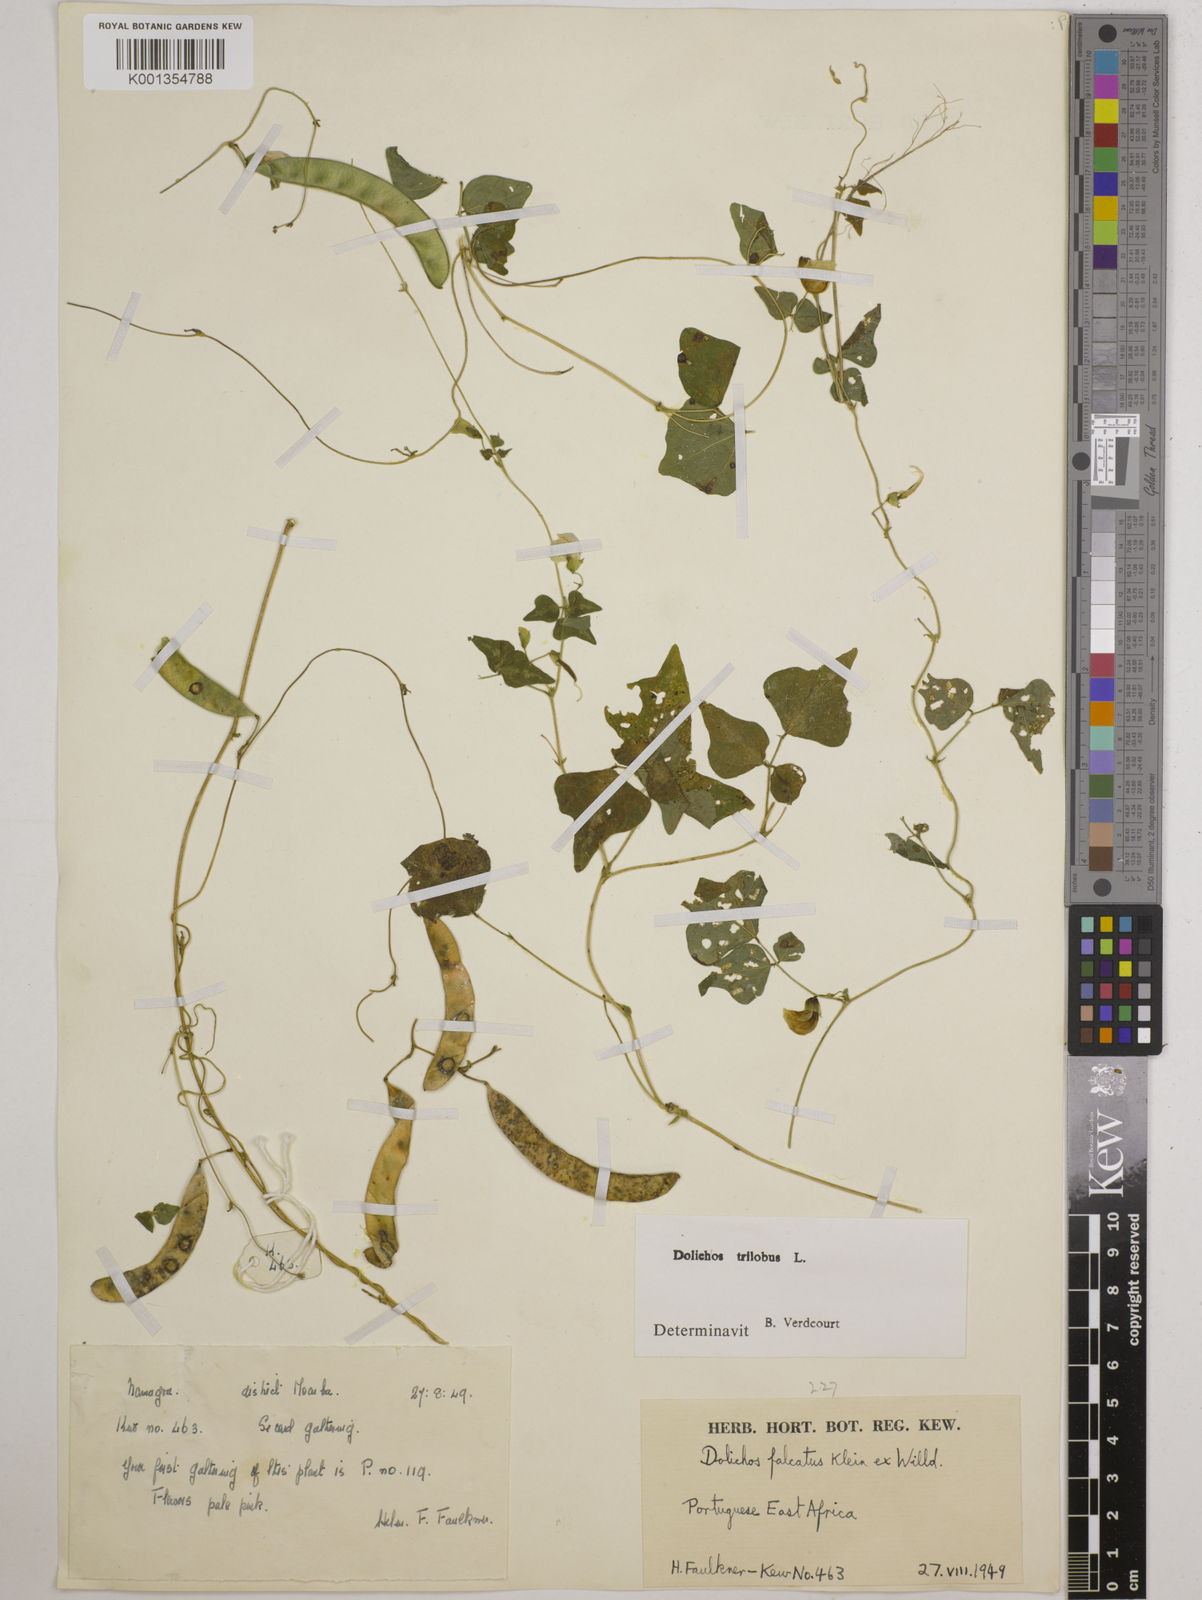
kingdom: Plantae
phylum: Tracheophyta
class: Magnoliopsida
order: Fabales
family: Fabaceae
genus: Dolichos
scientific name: Dolichos
